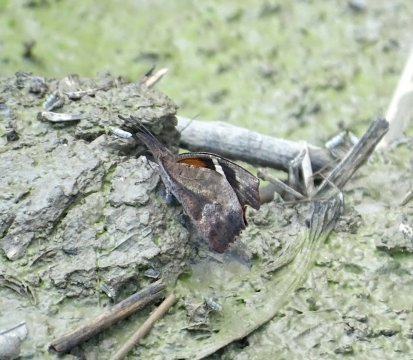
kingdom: Animalia
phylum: Arthropoda
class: Insecta
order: Lepidoptera
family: Nymphalidae
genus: Libytheana
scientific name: Libytheana carinenta
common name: American Snout
